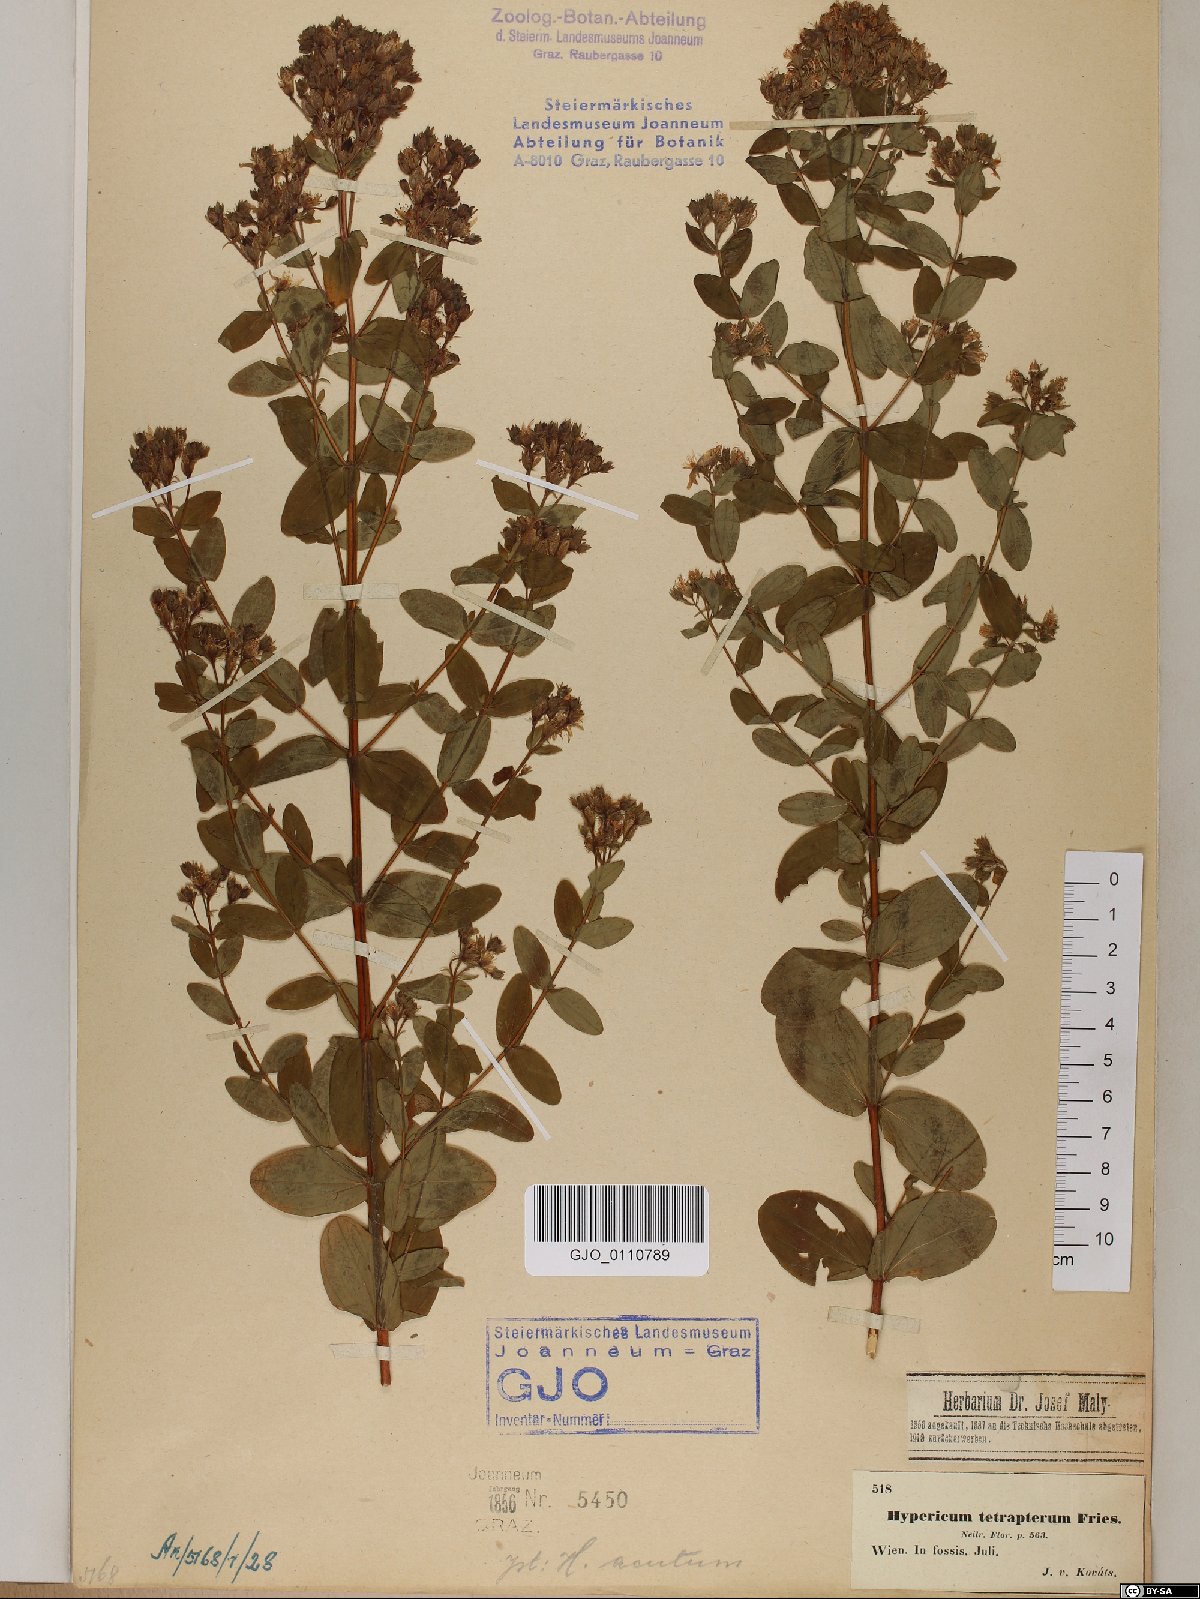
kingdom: Plantae
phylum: Tracheophyta
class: Magnoliopsida
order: Malpighiales
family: Hypericaceae
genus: Hypericum
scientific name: Hypericum tetrapterum
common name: Square-stalked st. john's-wort
